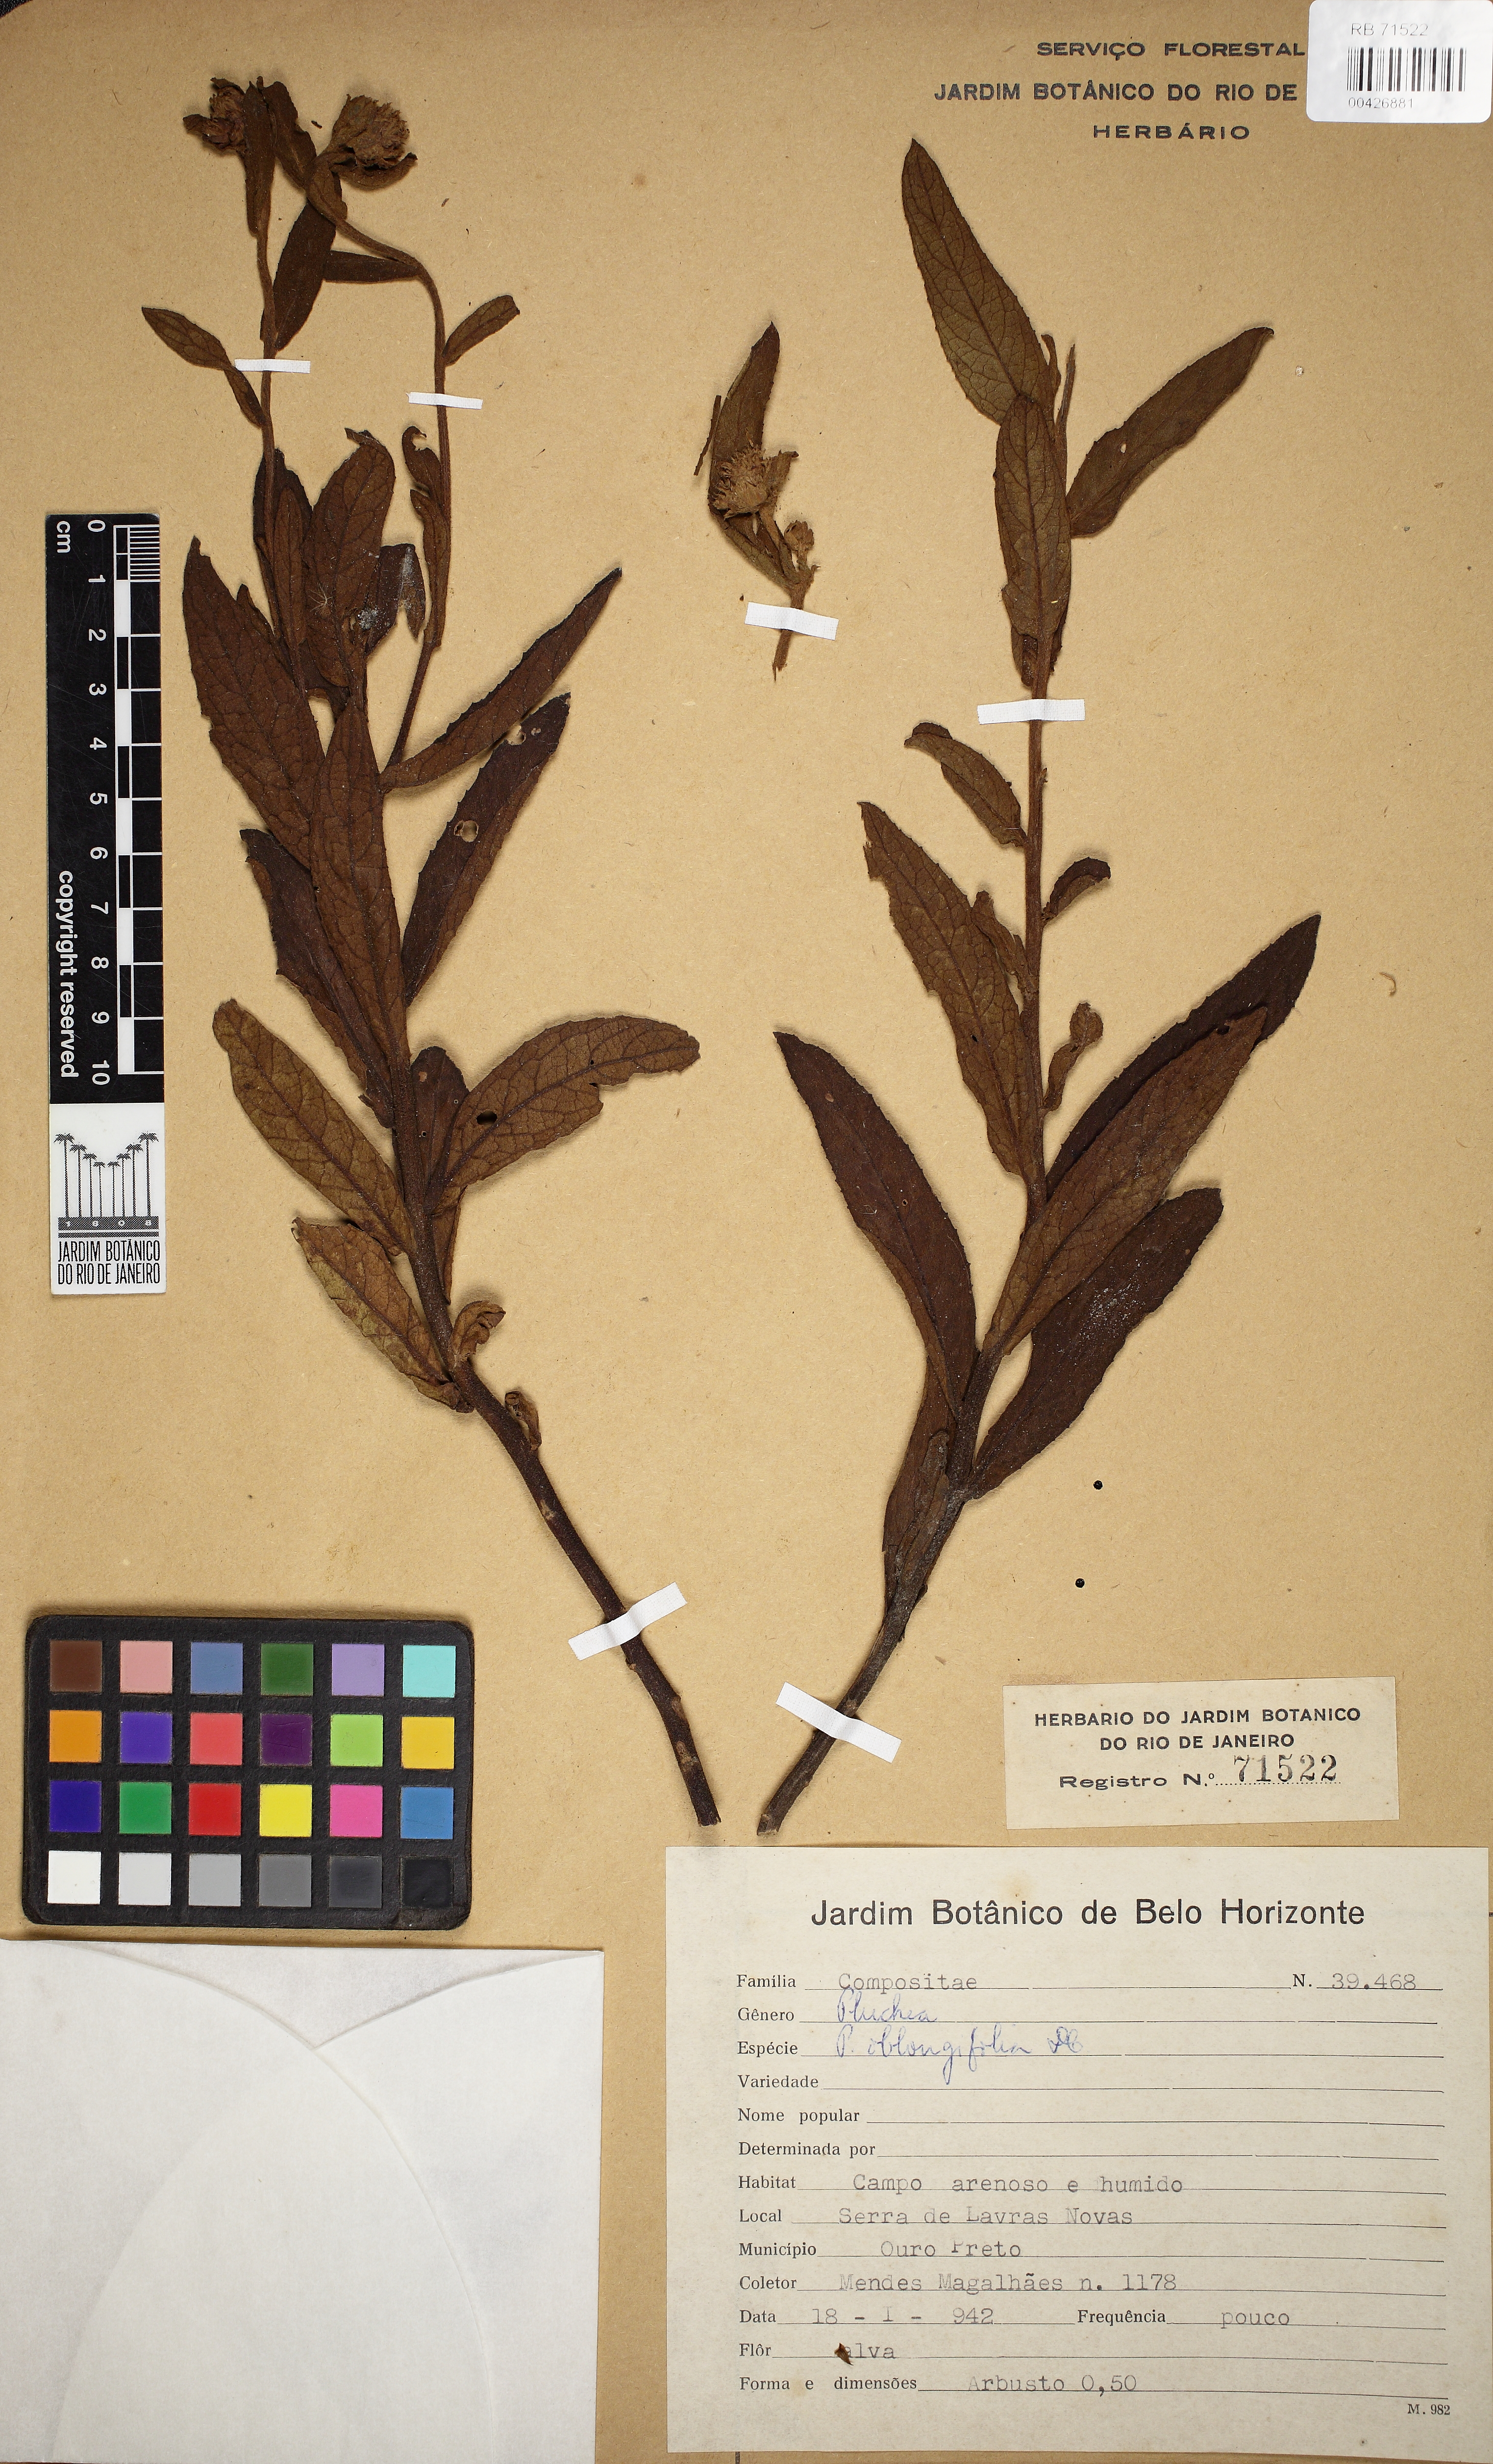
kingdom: Plantae
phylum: Tracheophyta
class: Magnoliopsida
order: Asterales
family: Asteraceae
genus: Pluchea
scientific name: Pluchea oblongifolia
